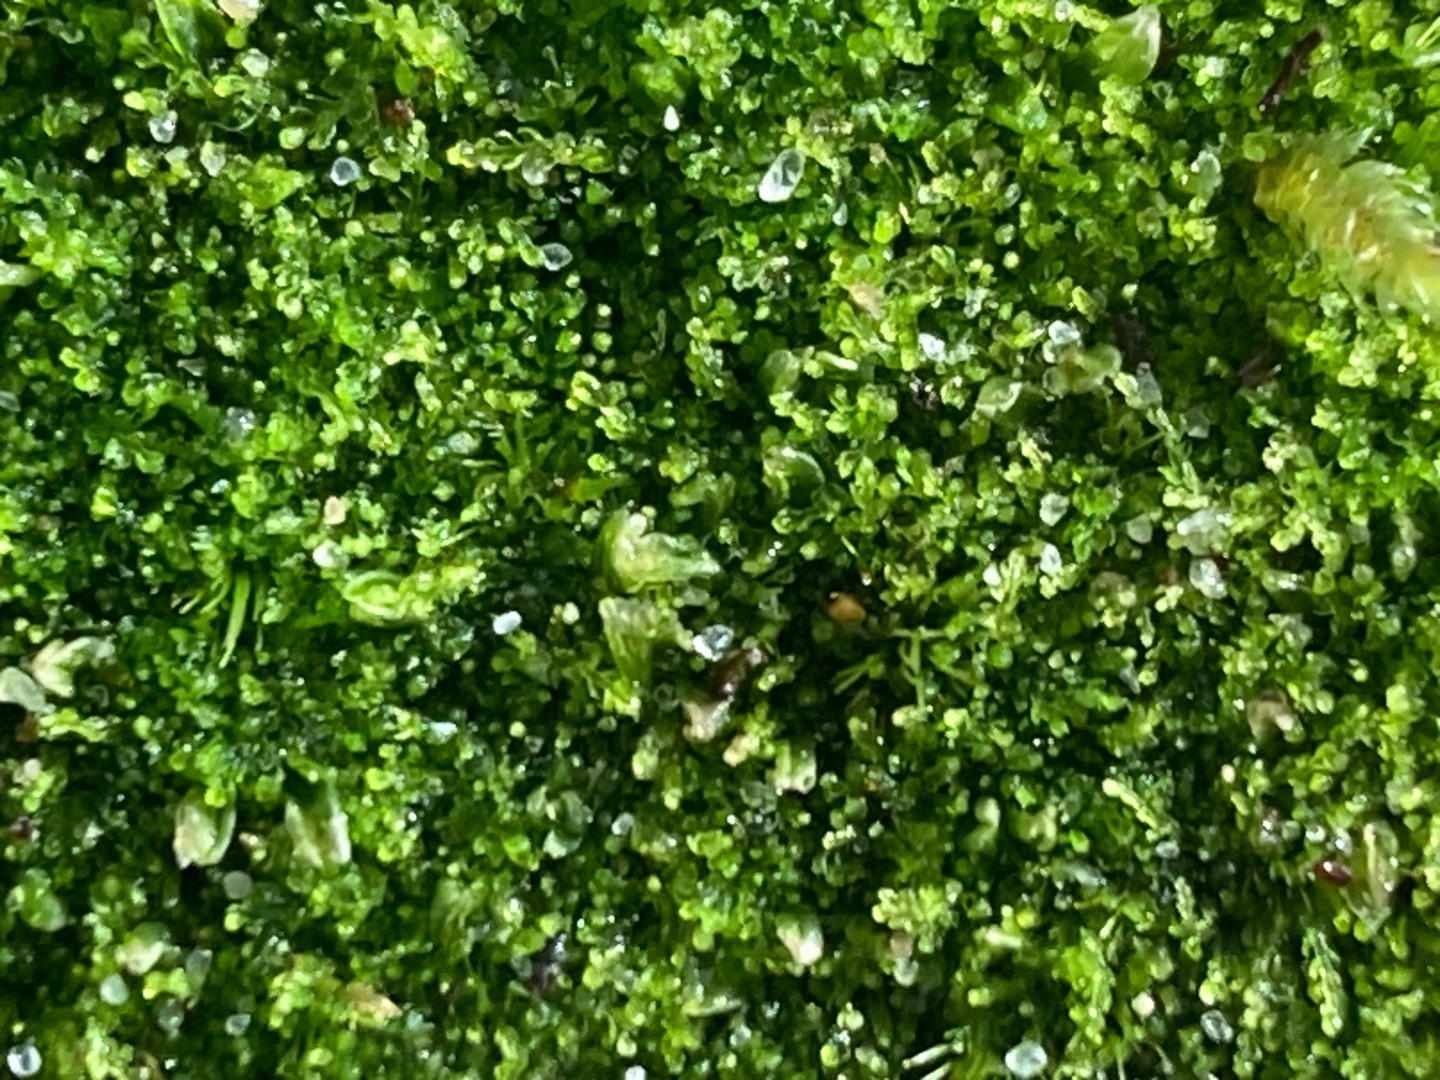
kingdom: Plantae
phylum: Marchantiophyta
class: Jungermanniopsida
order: Jungermanniales
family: Cephaloziaceae
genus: Cephalozia
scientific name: Cephalozia bicuspidata
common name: Tvespidset kantbæger
